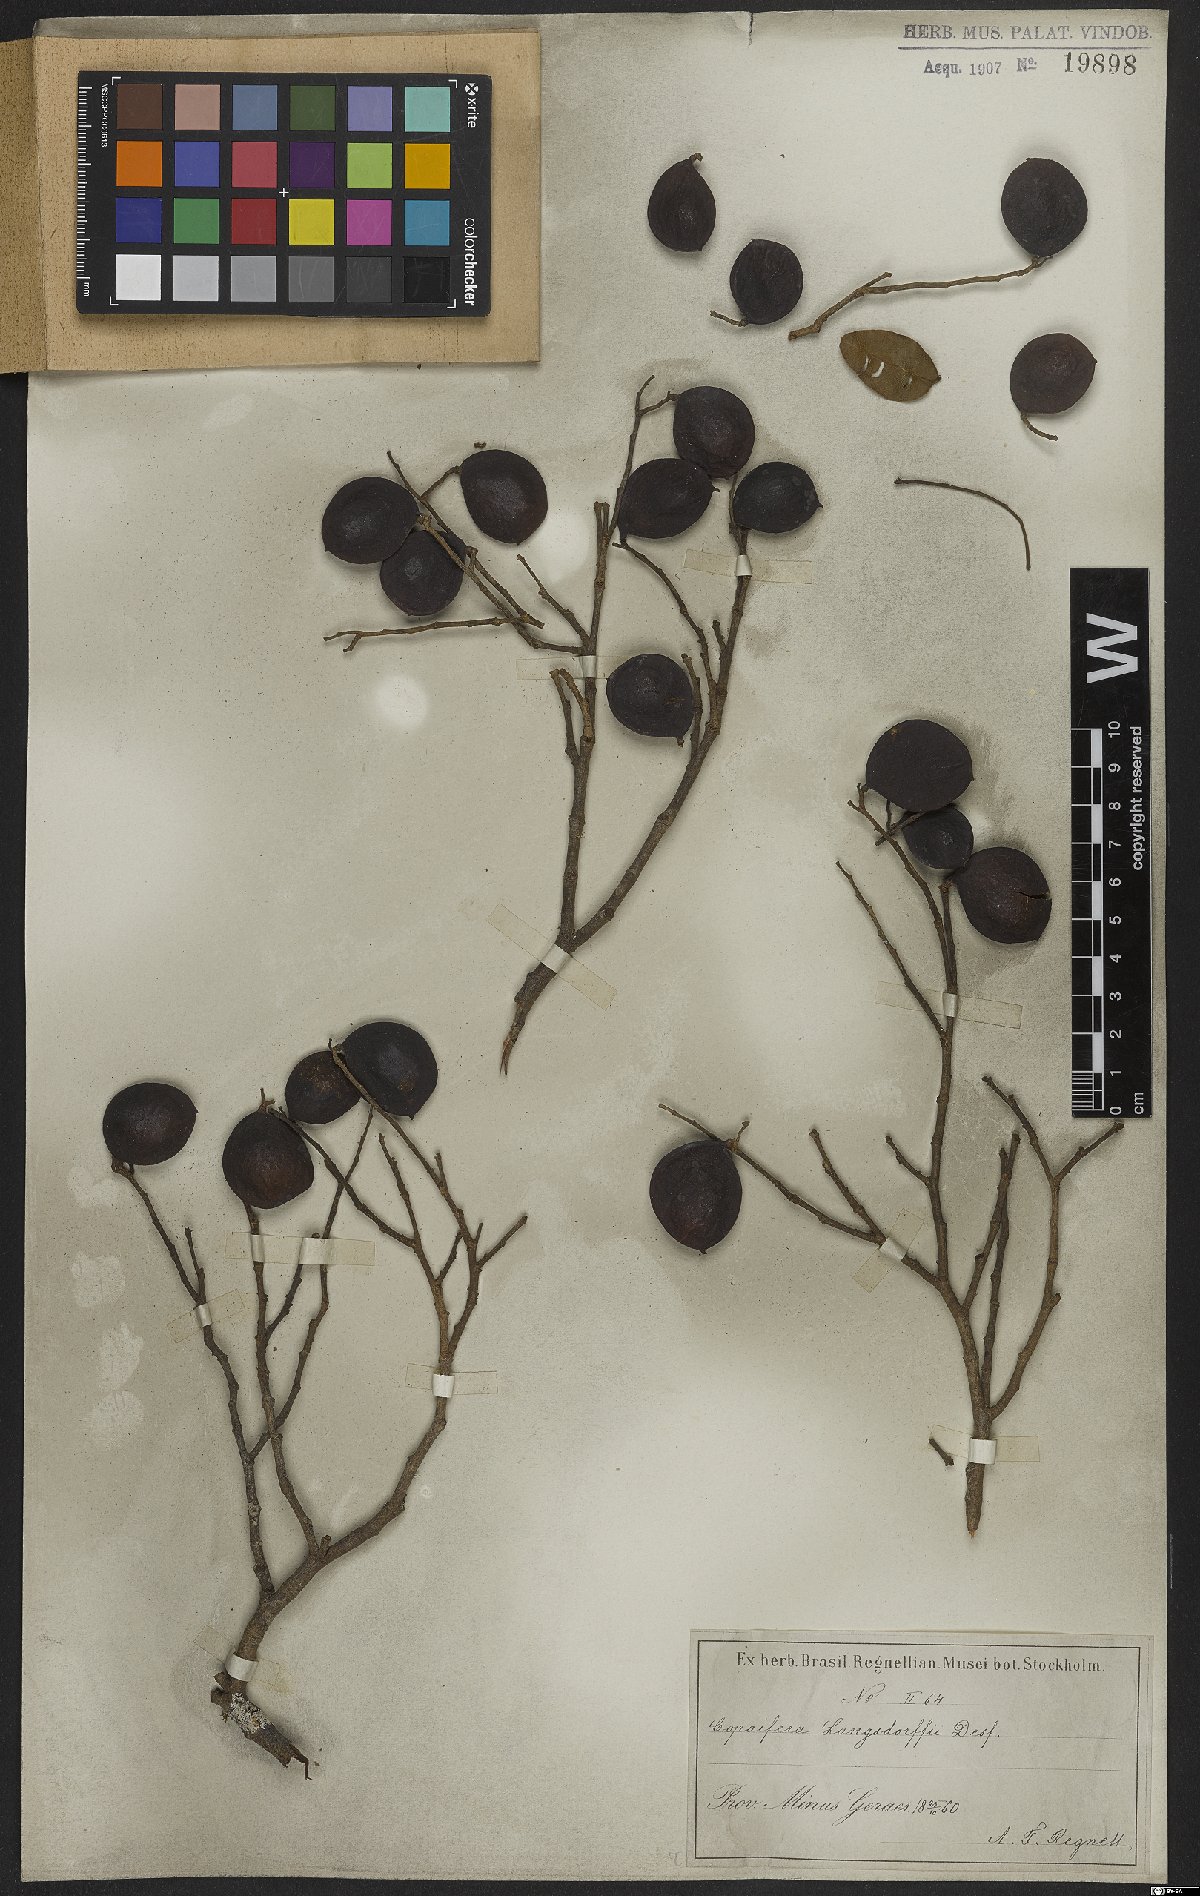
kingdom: Plantae
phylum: Tracheophyta
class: Magnoliopsida
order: Fabales
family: Fabaceae
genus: Copaifera
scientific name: Copaifera langsdorffii
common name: Brazilian diesel tree
